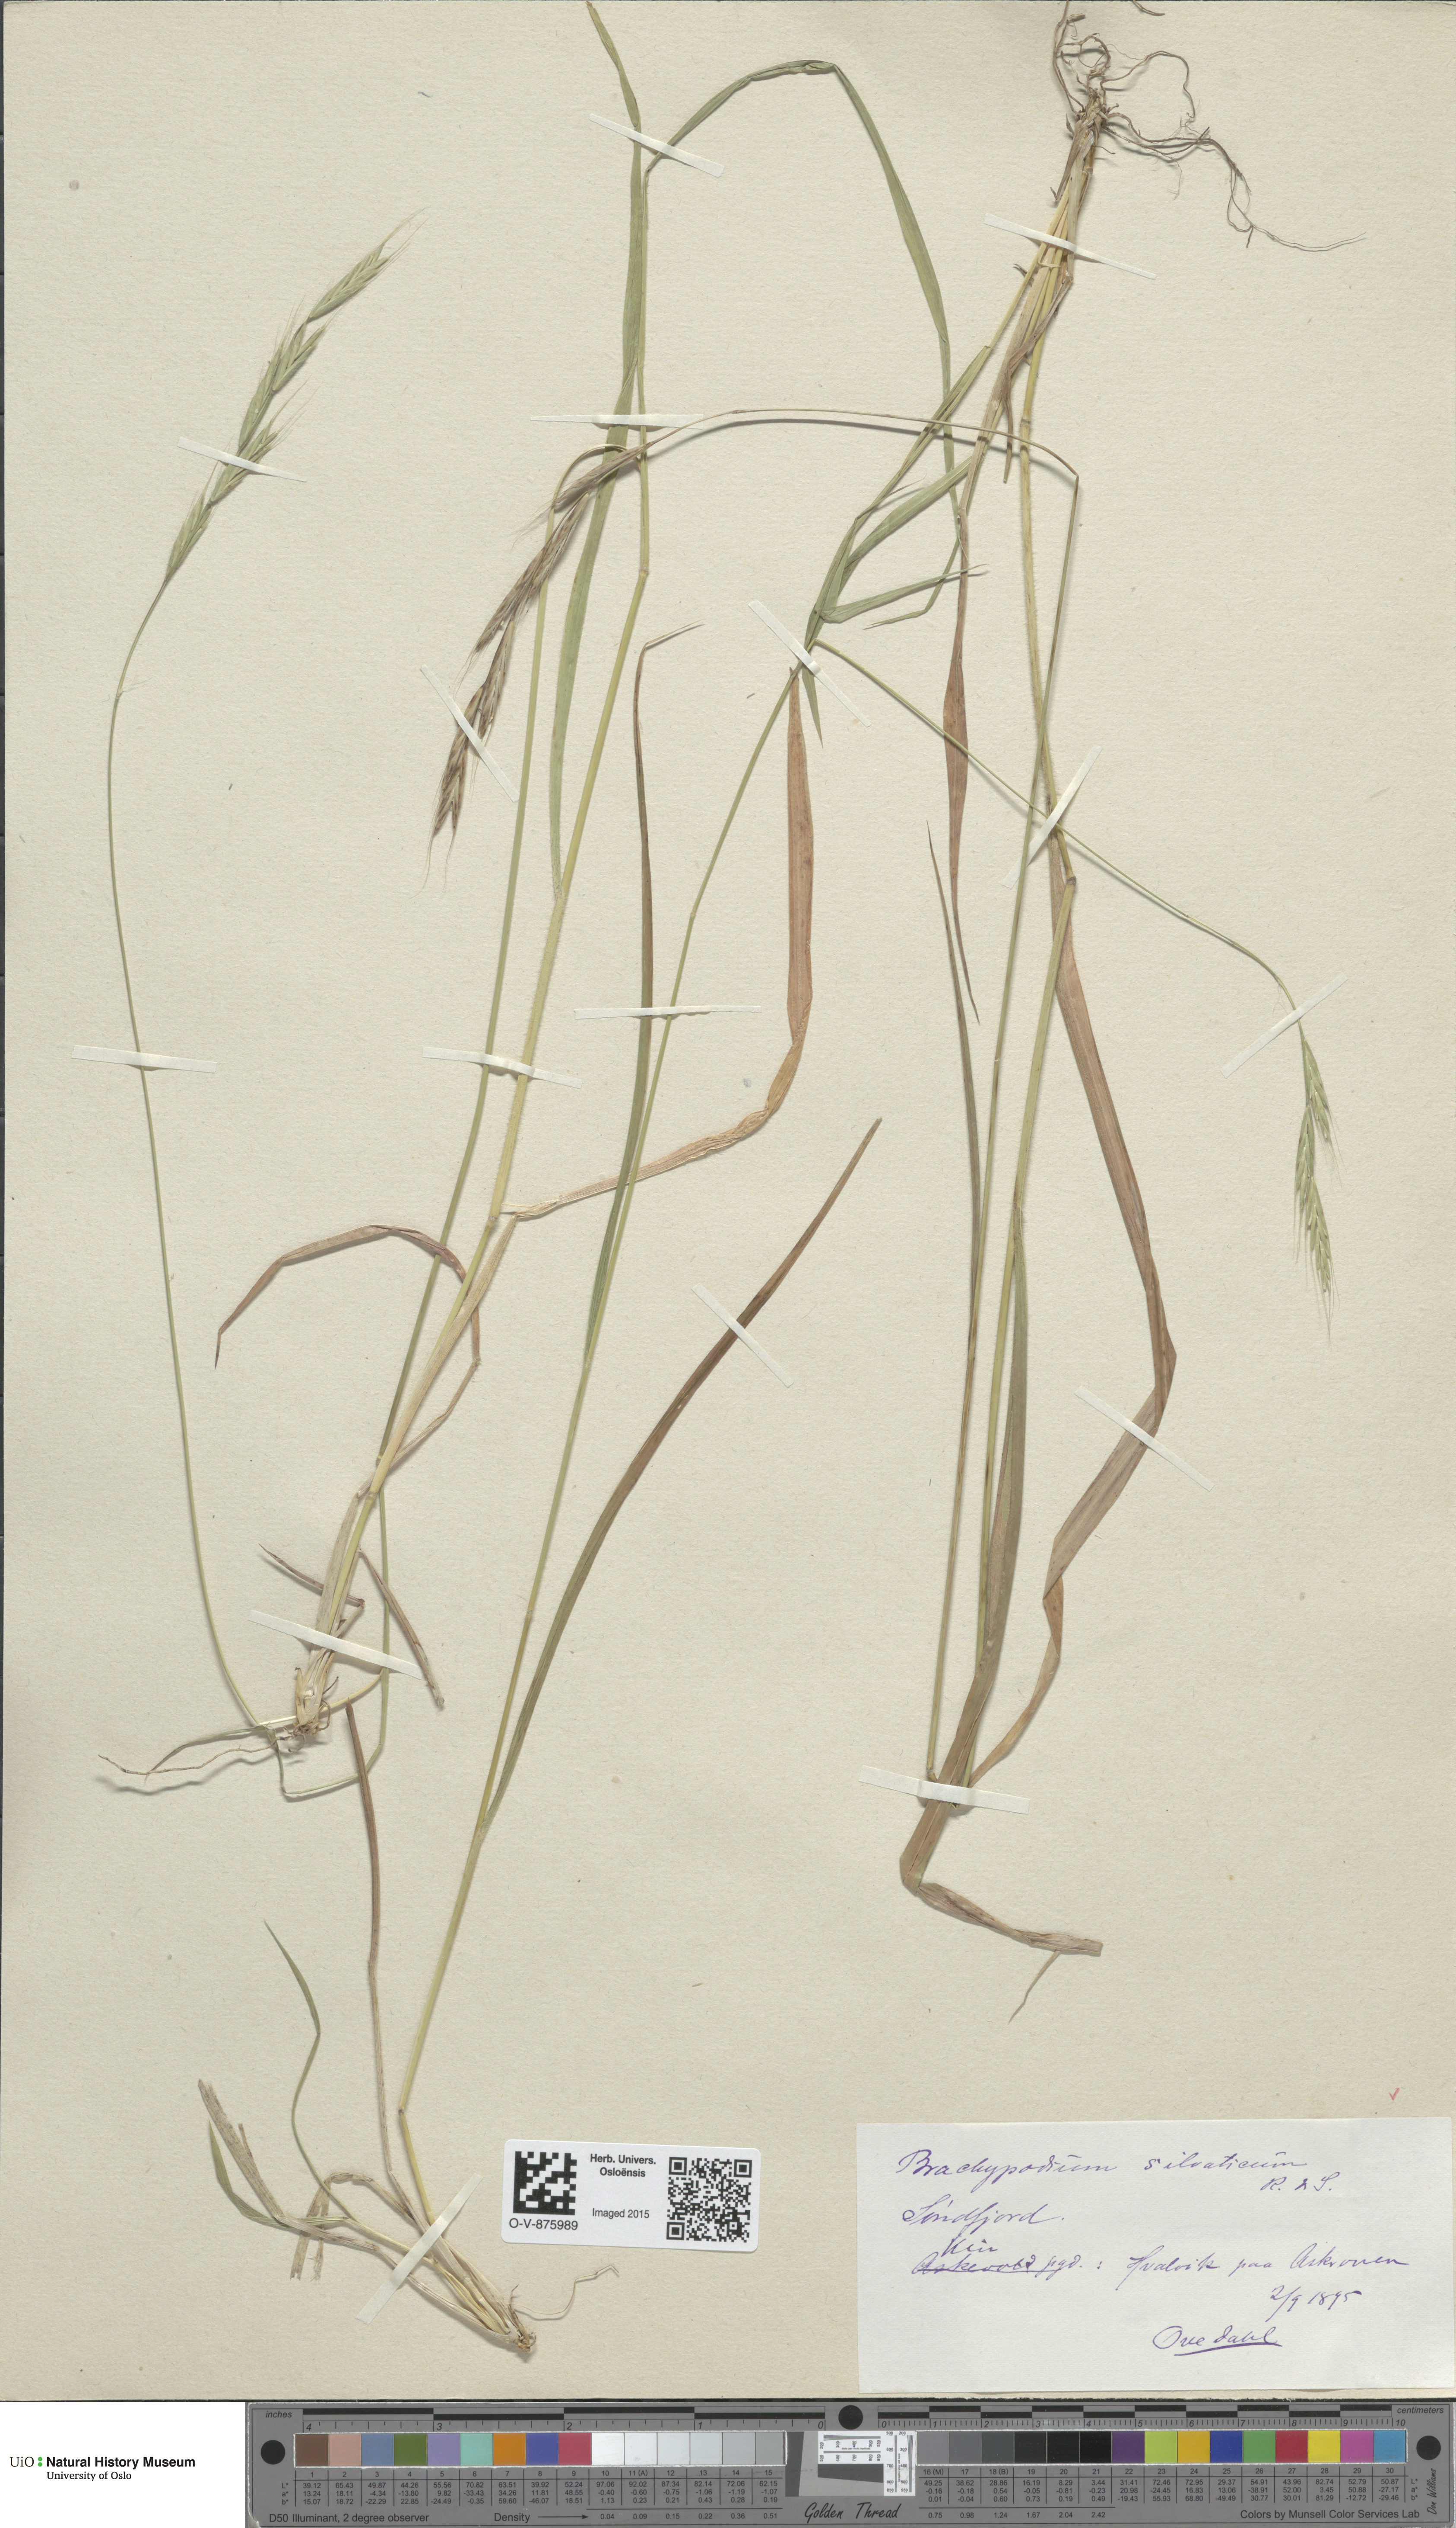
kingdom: Plantae
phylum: Tracheophyta
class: Liliopsida
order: Poales
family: Poaceae
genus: Brachypodium
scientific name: Brachypodium sylvaticum
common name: False-brome
